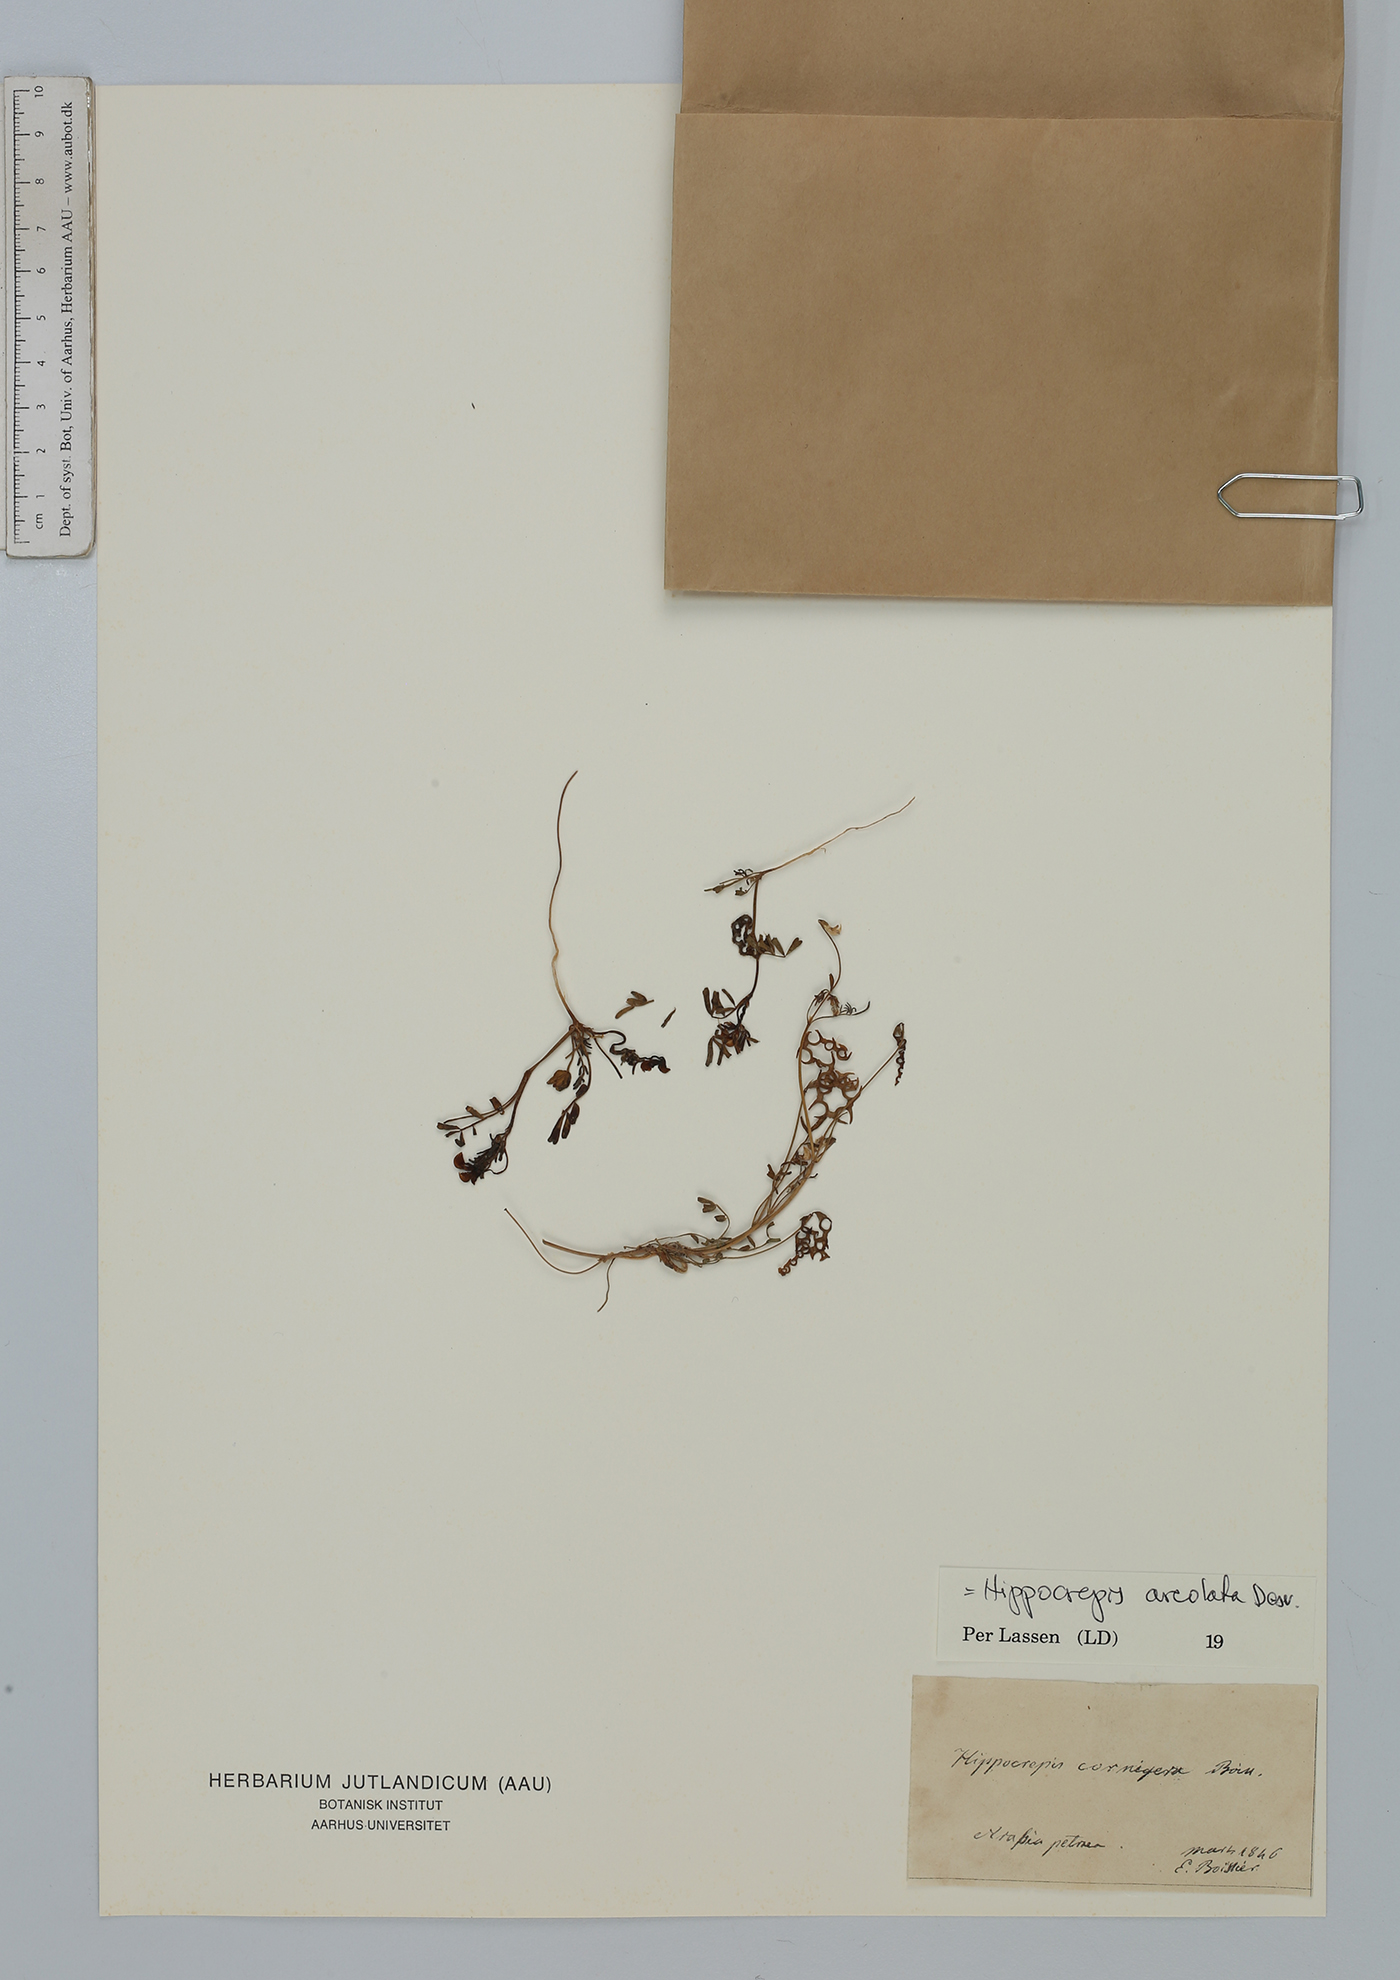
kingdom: Plantae
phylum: Tracheophyta
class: Magnoliopsida
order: Fabales
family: Fabaceae
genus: Hippocrepis
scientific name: Hippocrepis areolata
